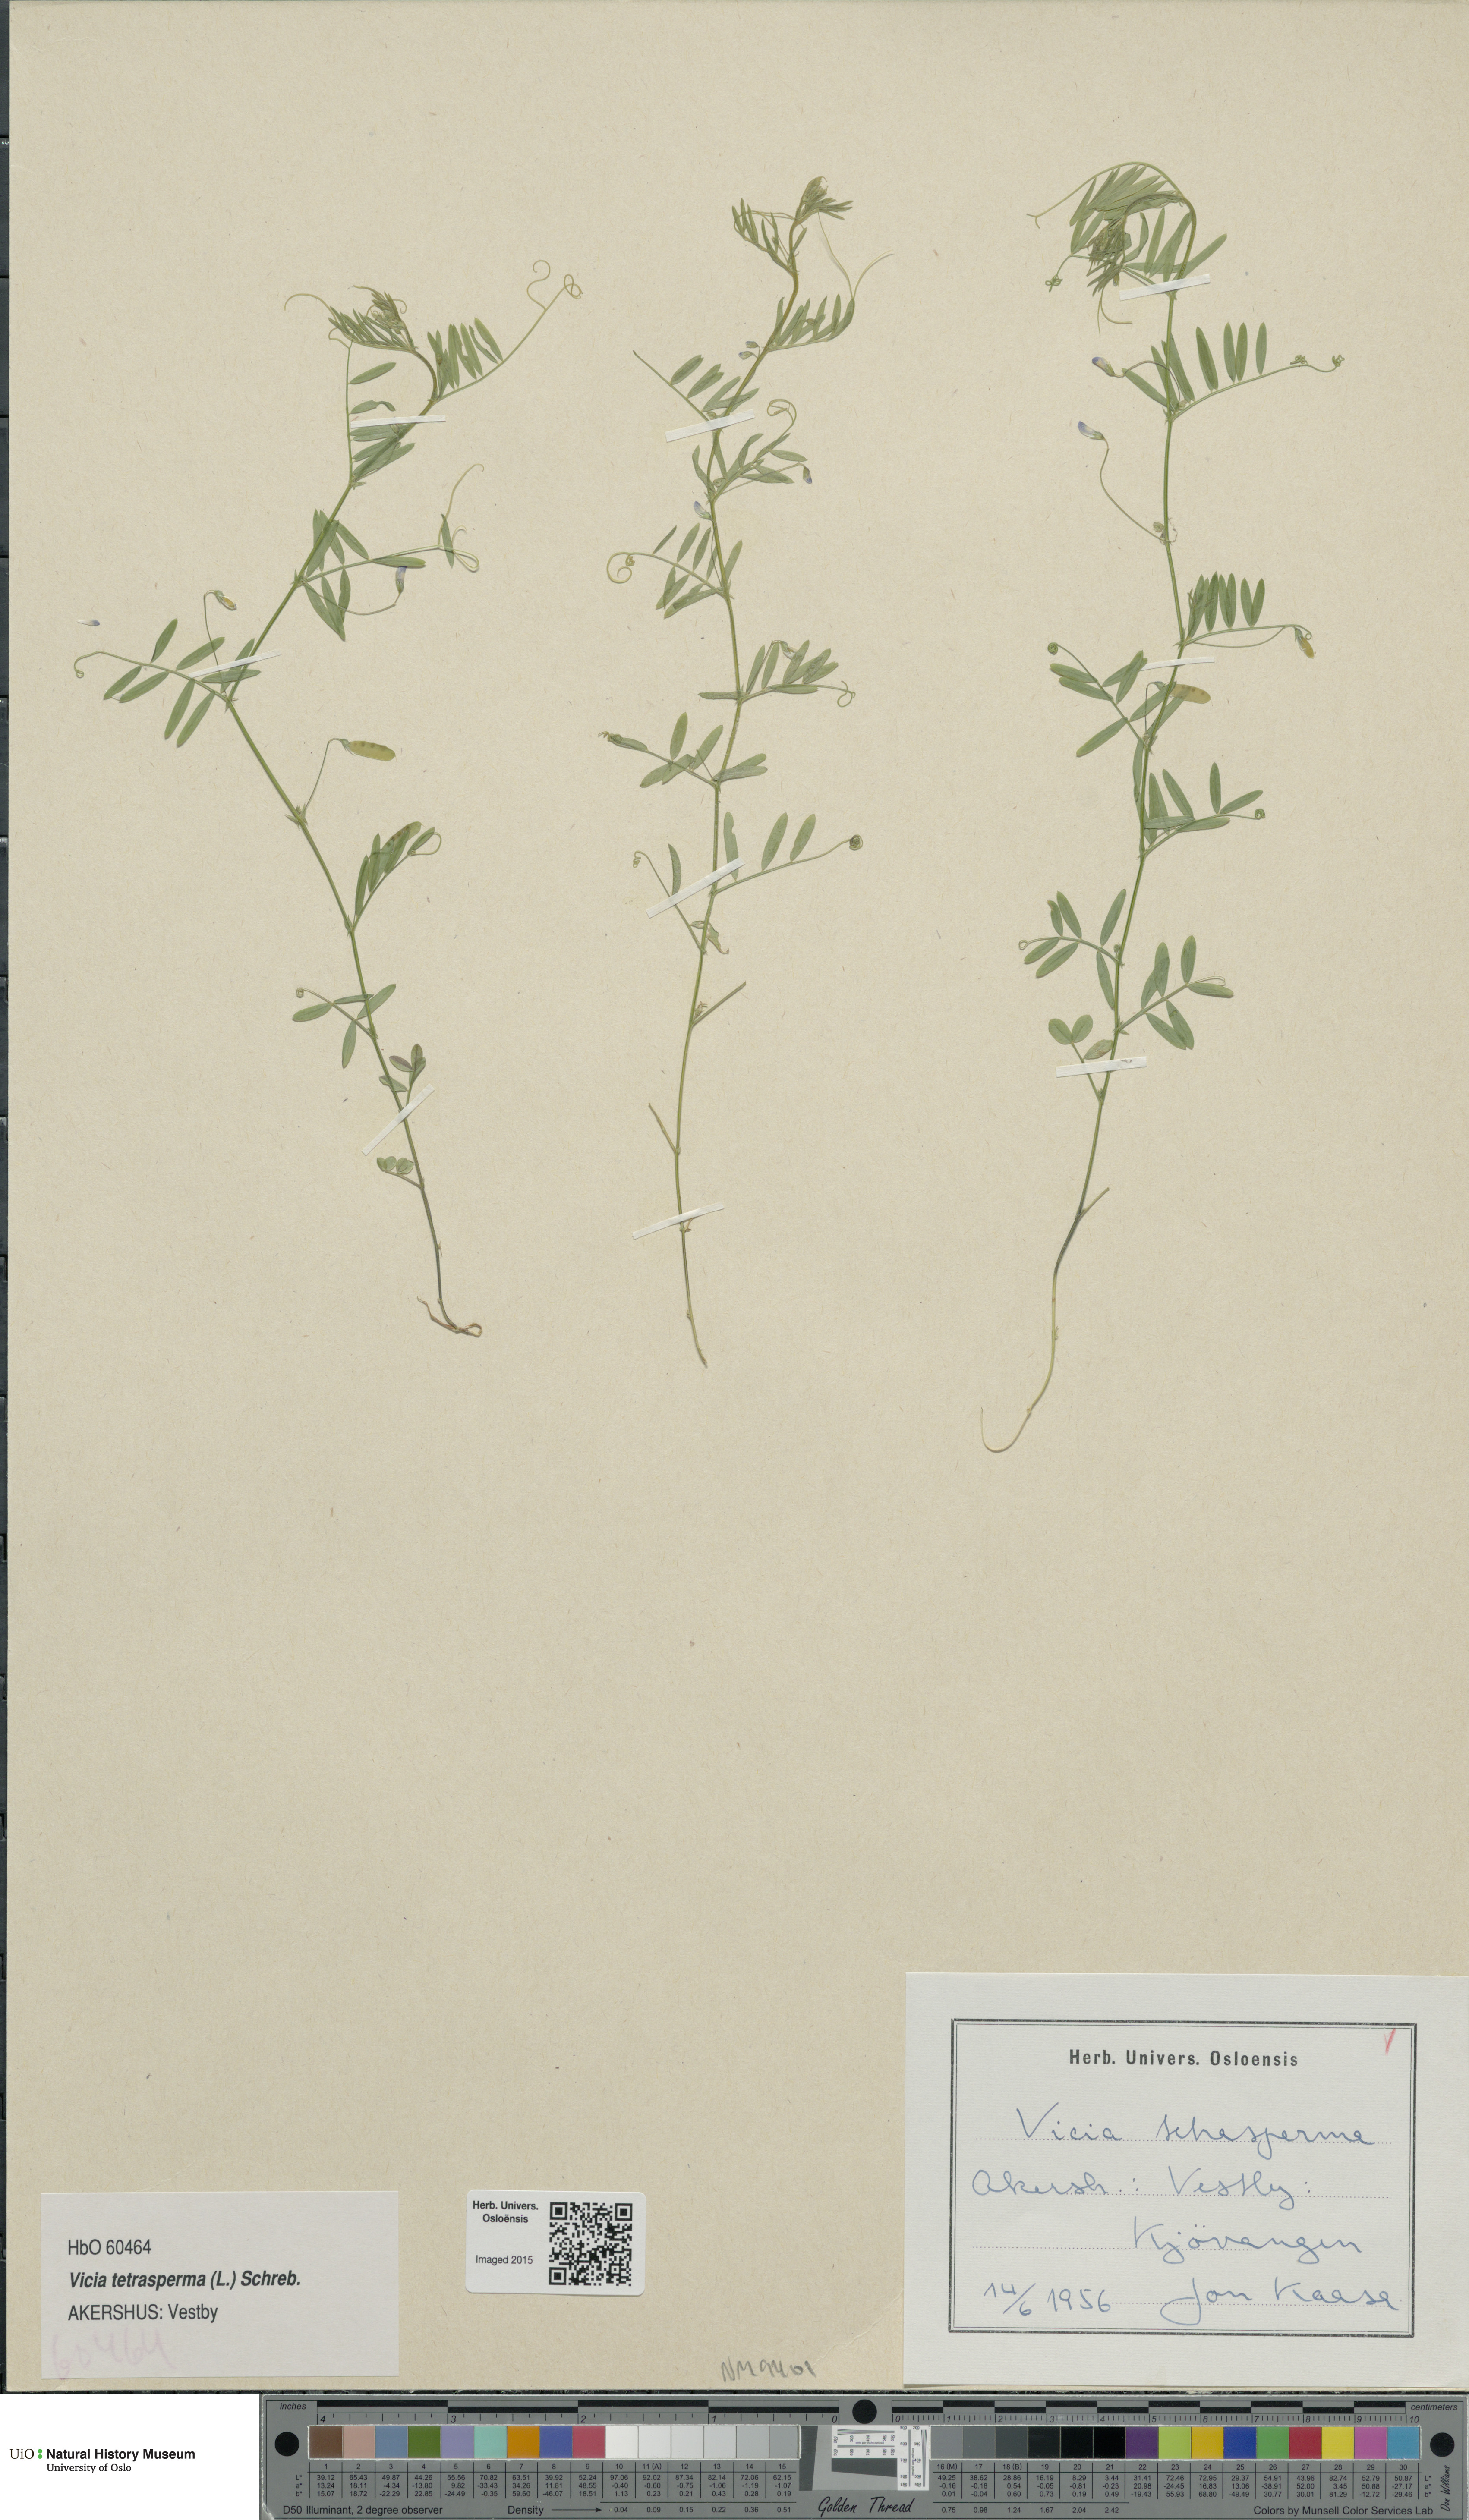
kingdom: Plantae
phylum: Tracheophyta
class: Magnoliopsida
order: Fabales
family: Fabaceae
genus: Vicia
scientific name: Vicia tetrasperma
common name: Smooth tare
